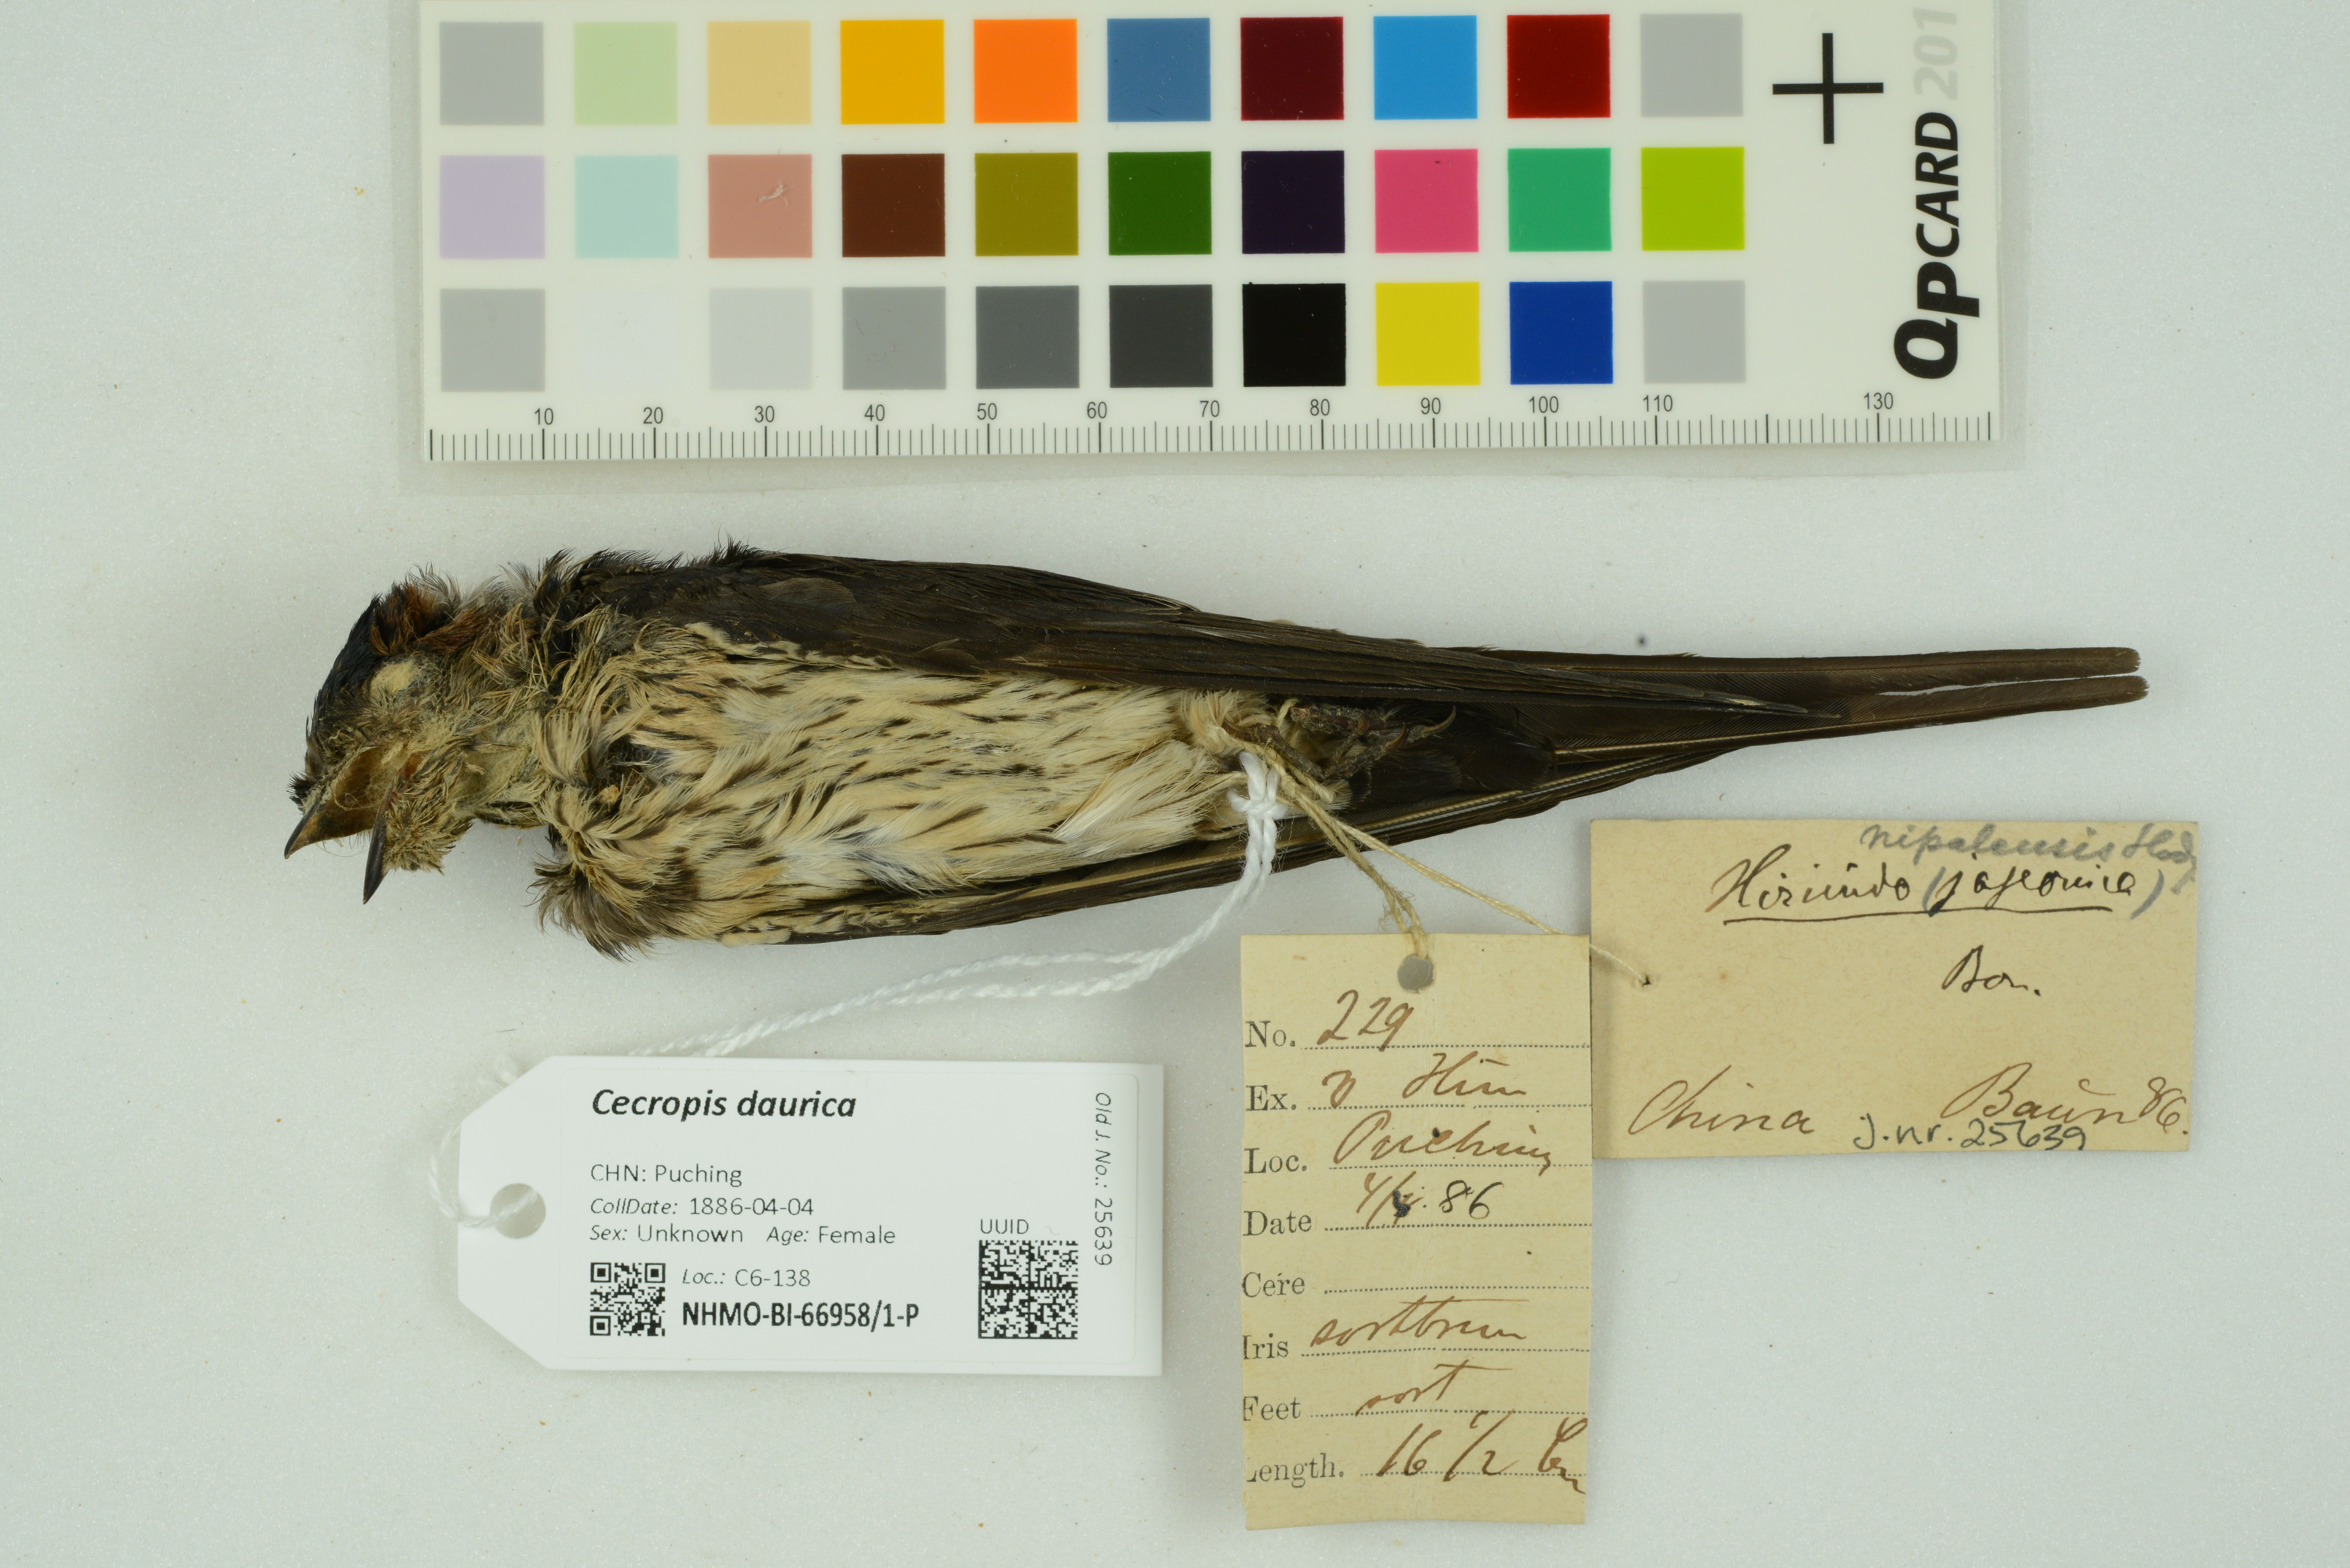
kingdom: Animalia
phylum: Chordata
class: Aves
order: Passeriformes
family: Hirundinidae
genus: Cecropis
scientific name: Cecropis daurica
